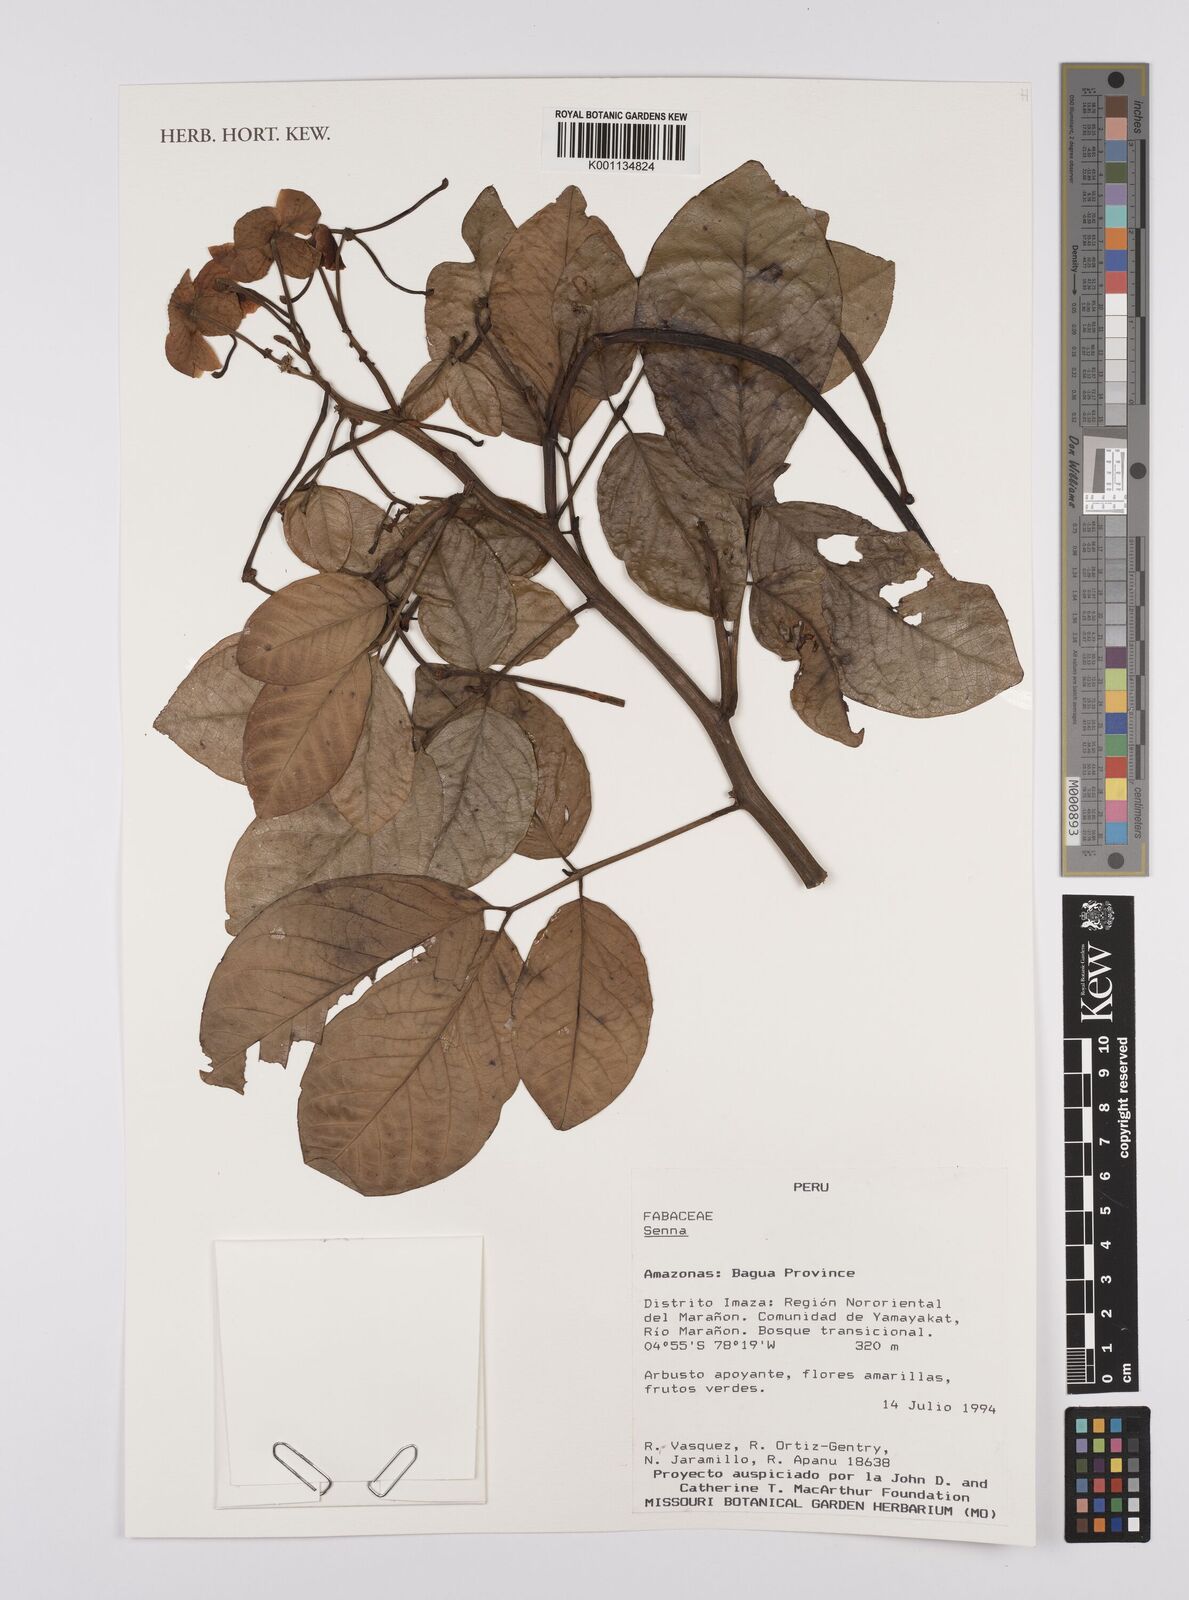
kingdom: Plantae
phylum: Tracheophyta
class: Magnoliopsida
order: Fabales
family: Fabaceae
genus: Senna
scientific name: Senna
